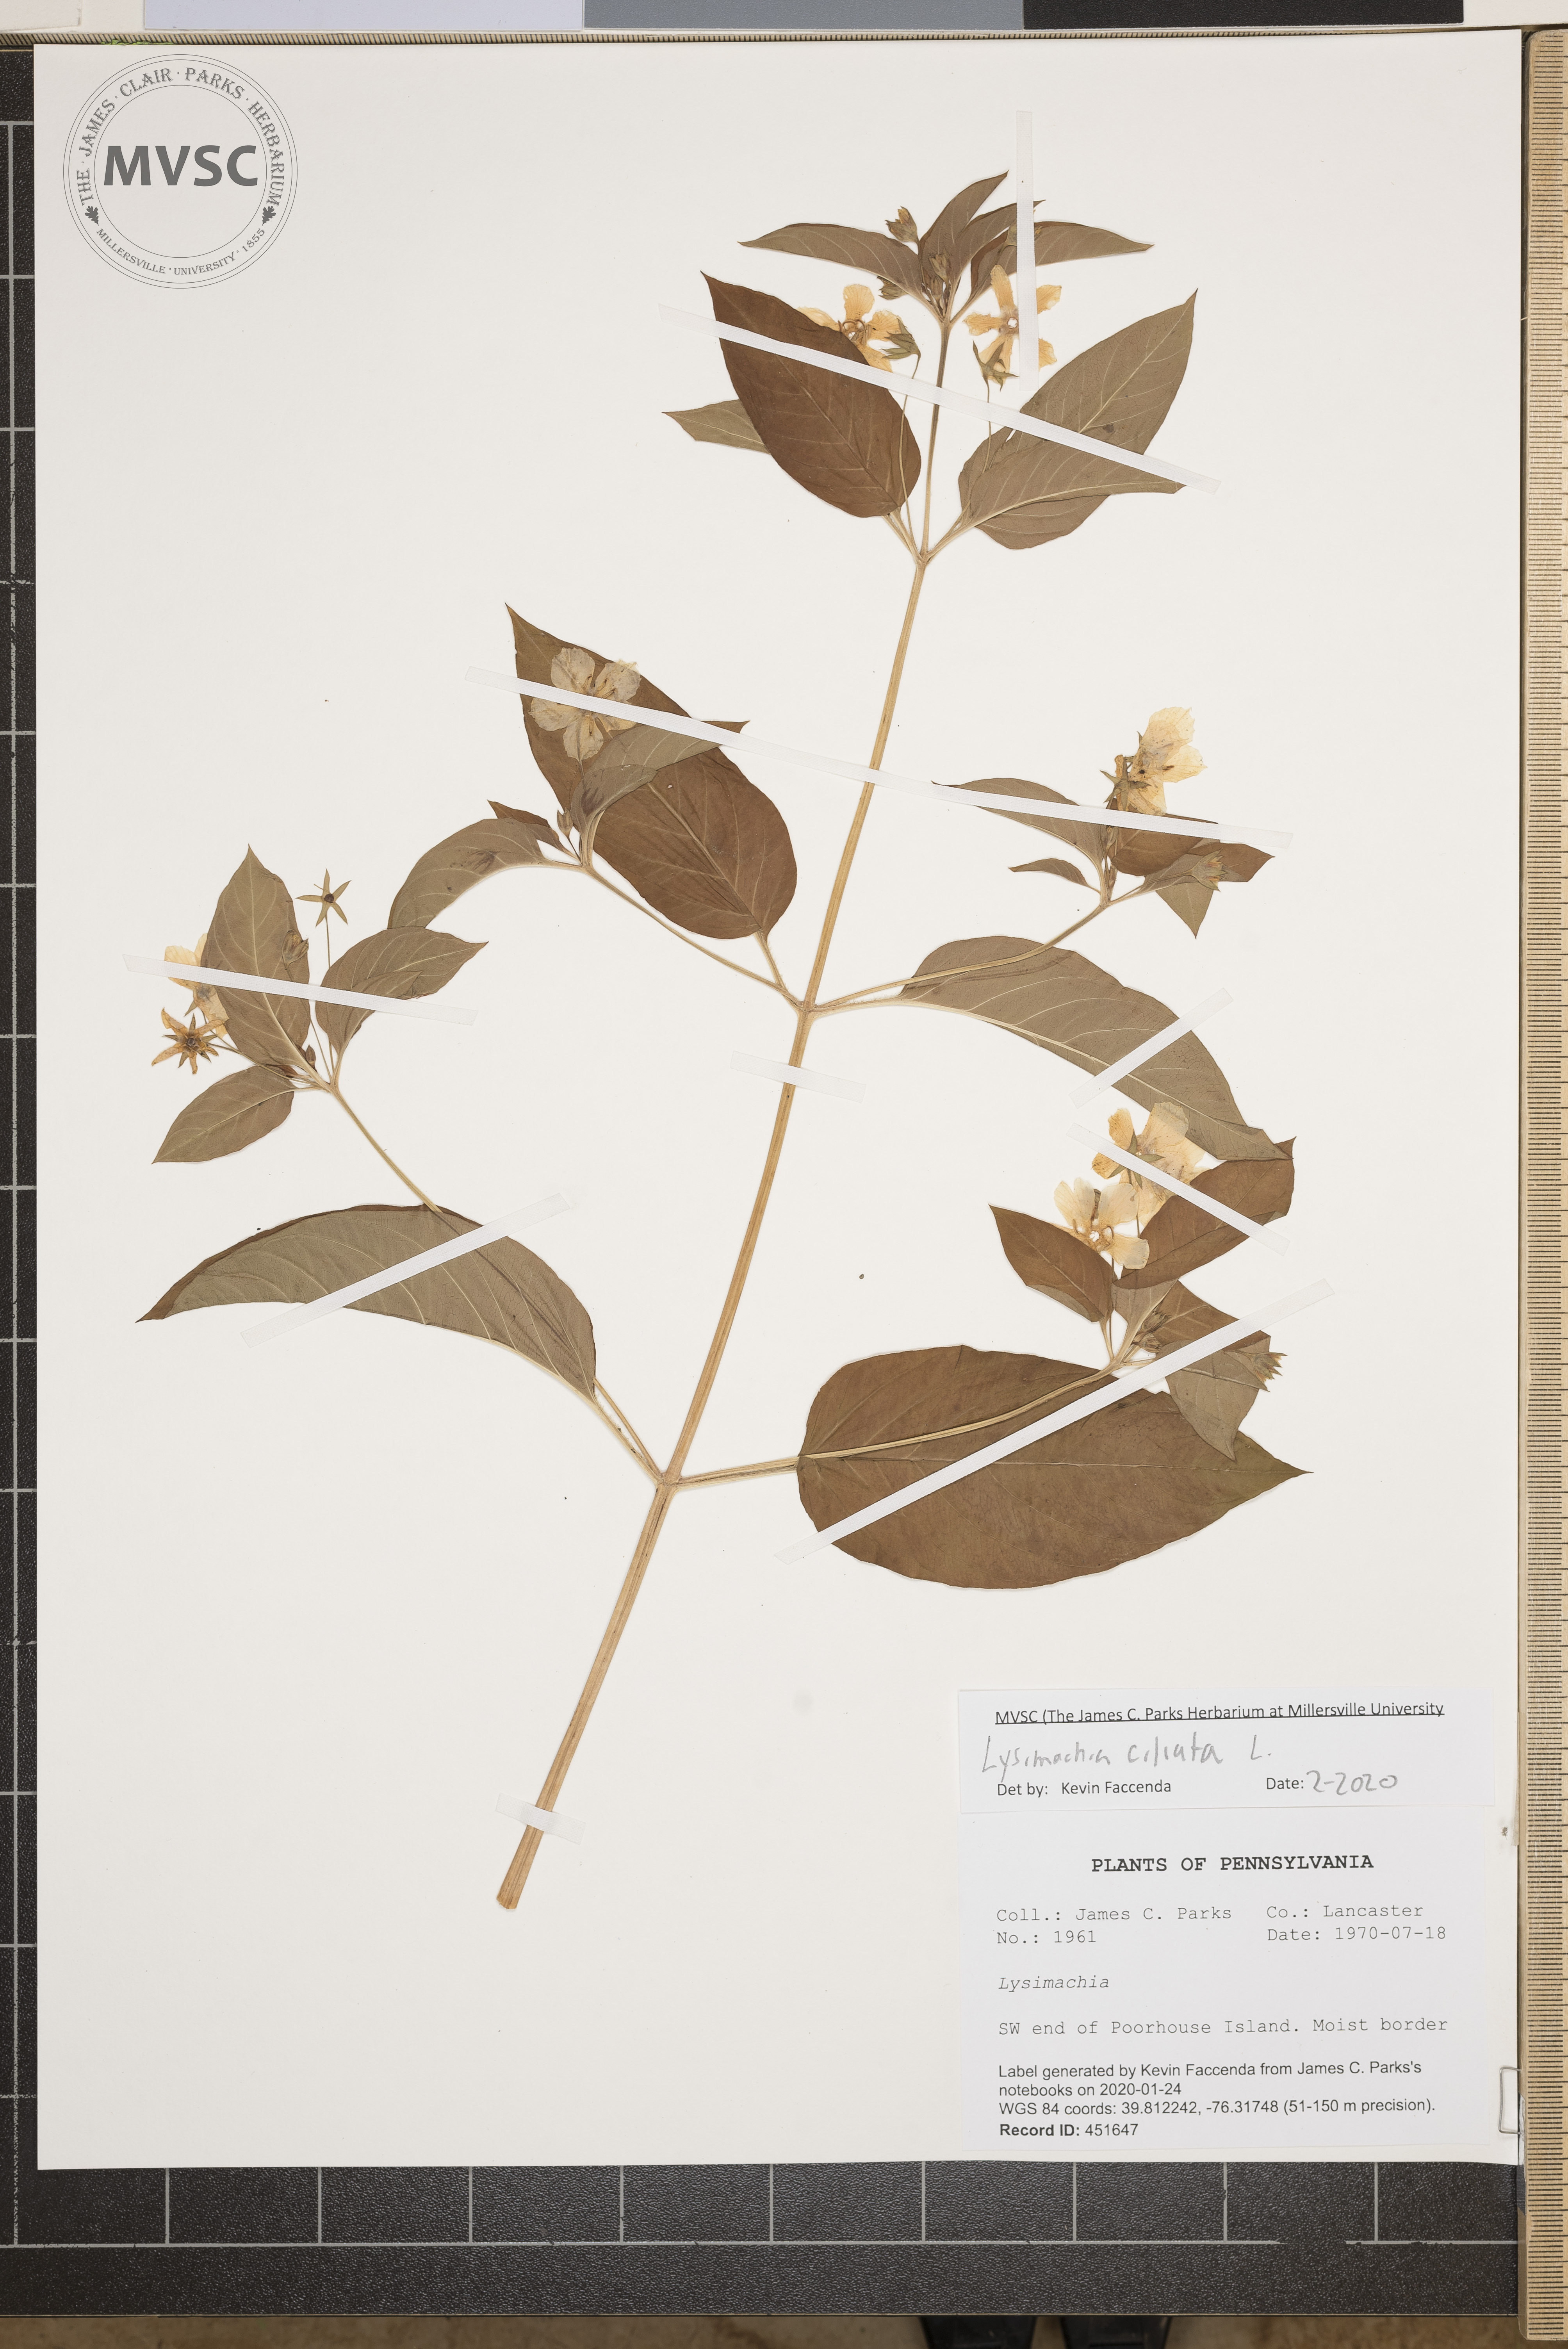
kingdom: Plantae
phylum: Tracheophyta
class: Magnoliopsida
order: Ericales
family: Primulaceae
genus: Lysimachia
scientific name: Lysimachia ciliata
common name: Fringed loosestrife
